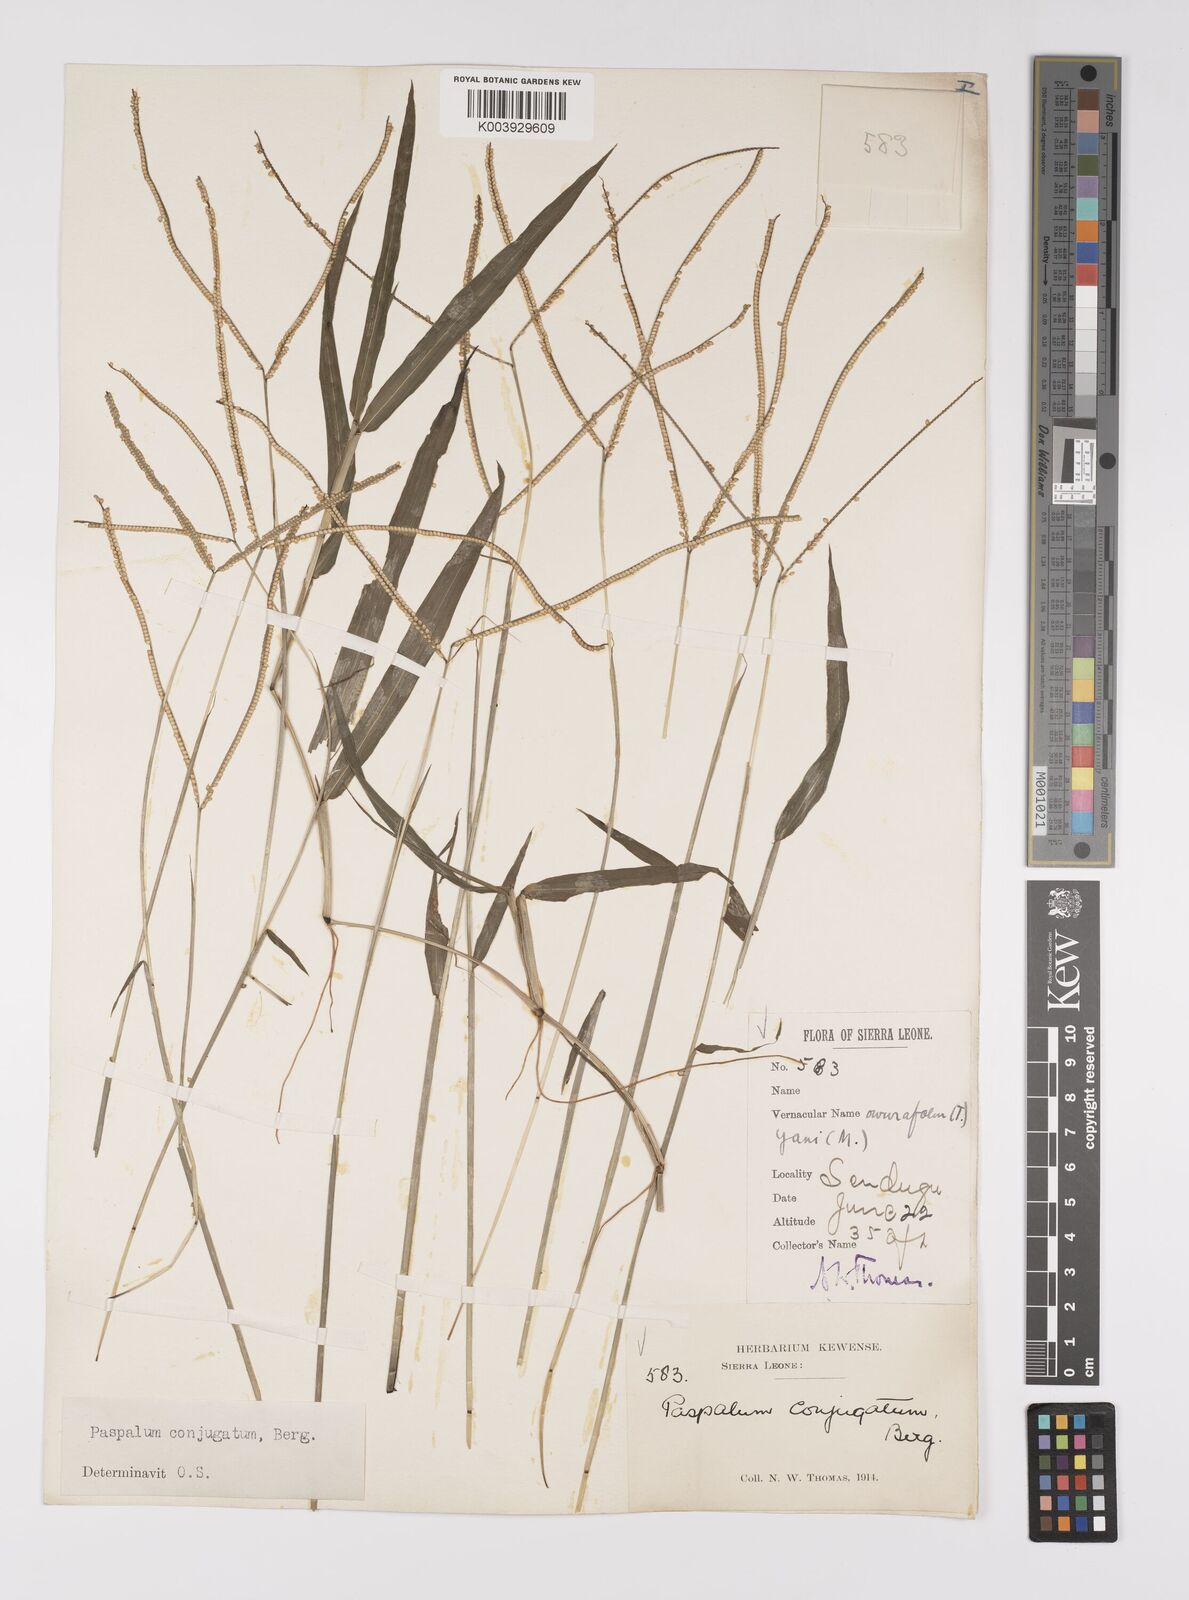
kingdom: Plantae
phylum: Tracheophyta
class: Liliopsida
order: Poales
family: Poaceae
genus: Paspalum
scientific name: Paspalum conjugatum
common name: Hilograss
